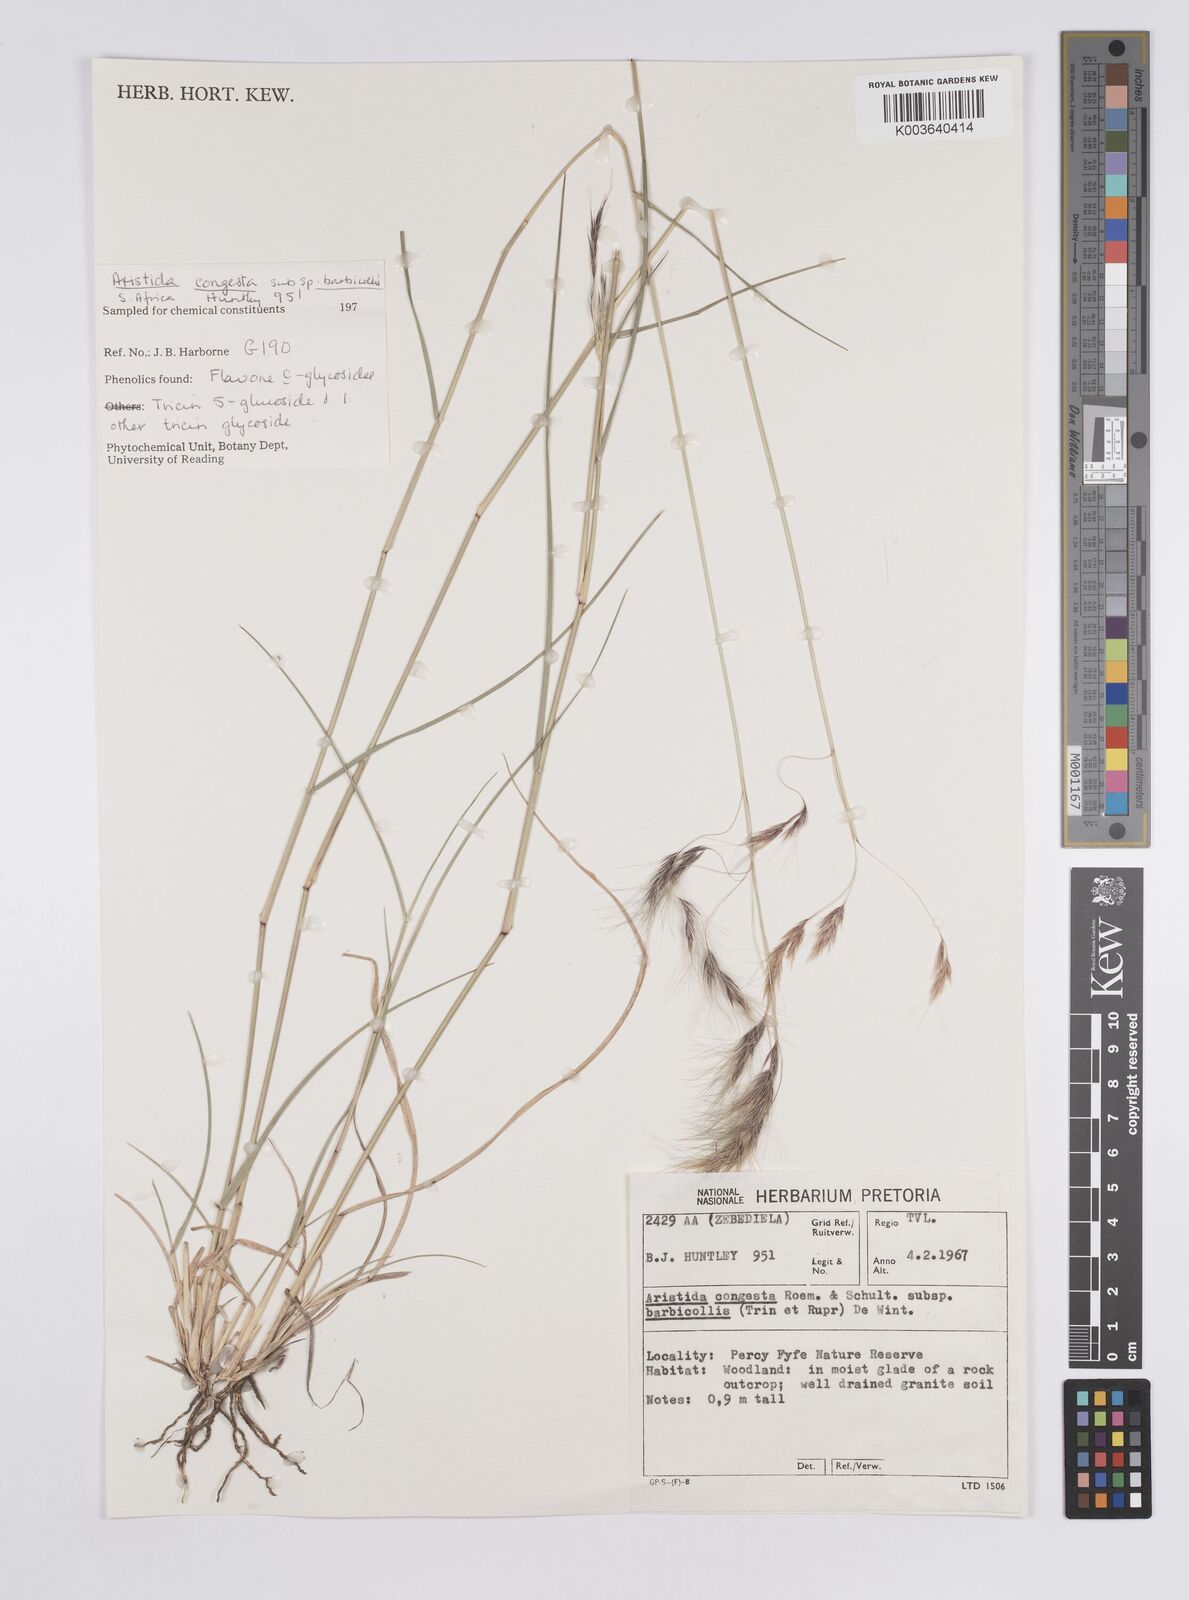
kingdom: Plantae
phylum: Tracheophyta
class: Liliopsida
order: Poales
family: Poaceae
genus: Aristida
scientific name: Aristida barbicollis
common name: Spreading prickle grass
